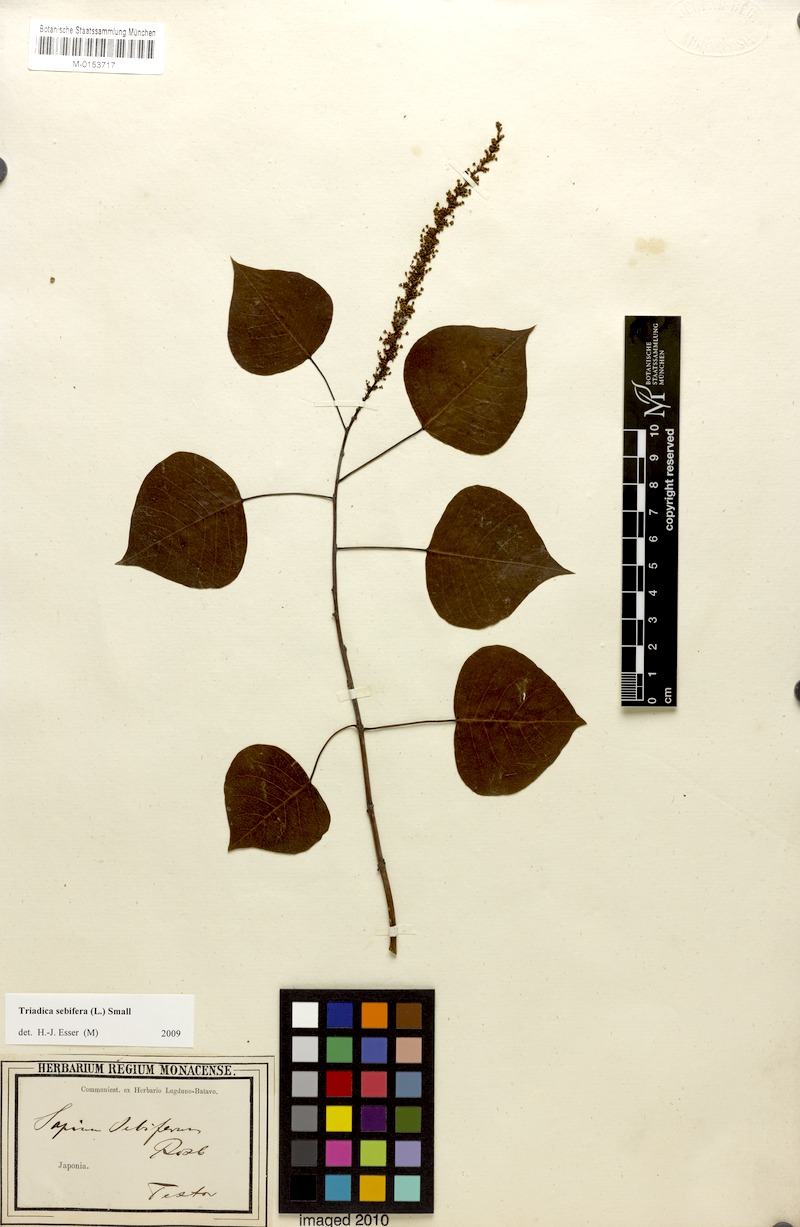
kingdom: Plantae
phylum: Tracheophyta
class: Magnoliopsida
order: Malpighiales
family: Euphorbiaceae
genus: Triadica
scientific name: Triadica sebifera
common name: Chinese tallow
